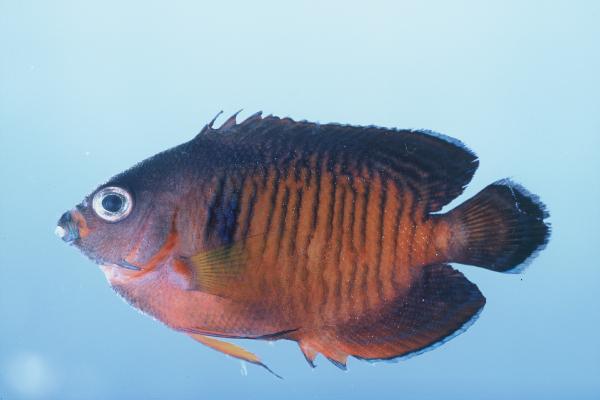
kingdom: Animalia
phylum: Chordata
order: Perciformes
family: Pomacanthidae
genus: Centropyge
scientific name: Centropyge bispinosa
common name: Coral beauty
